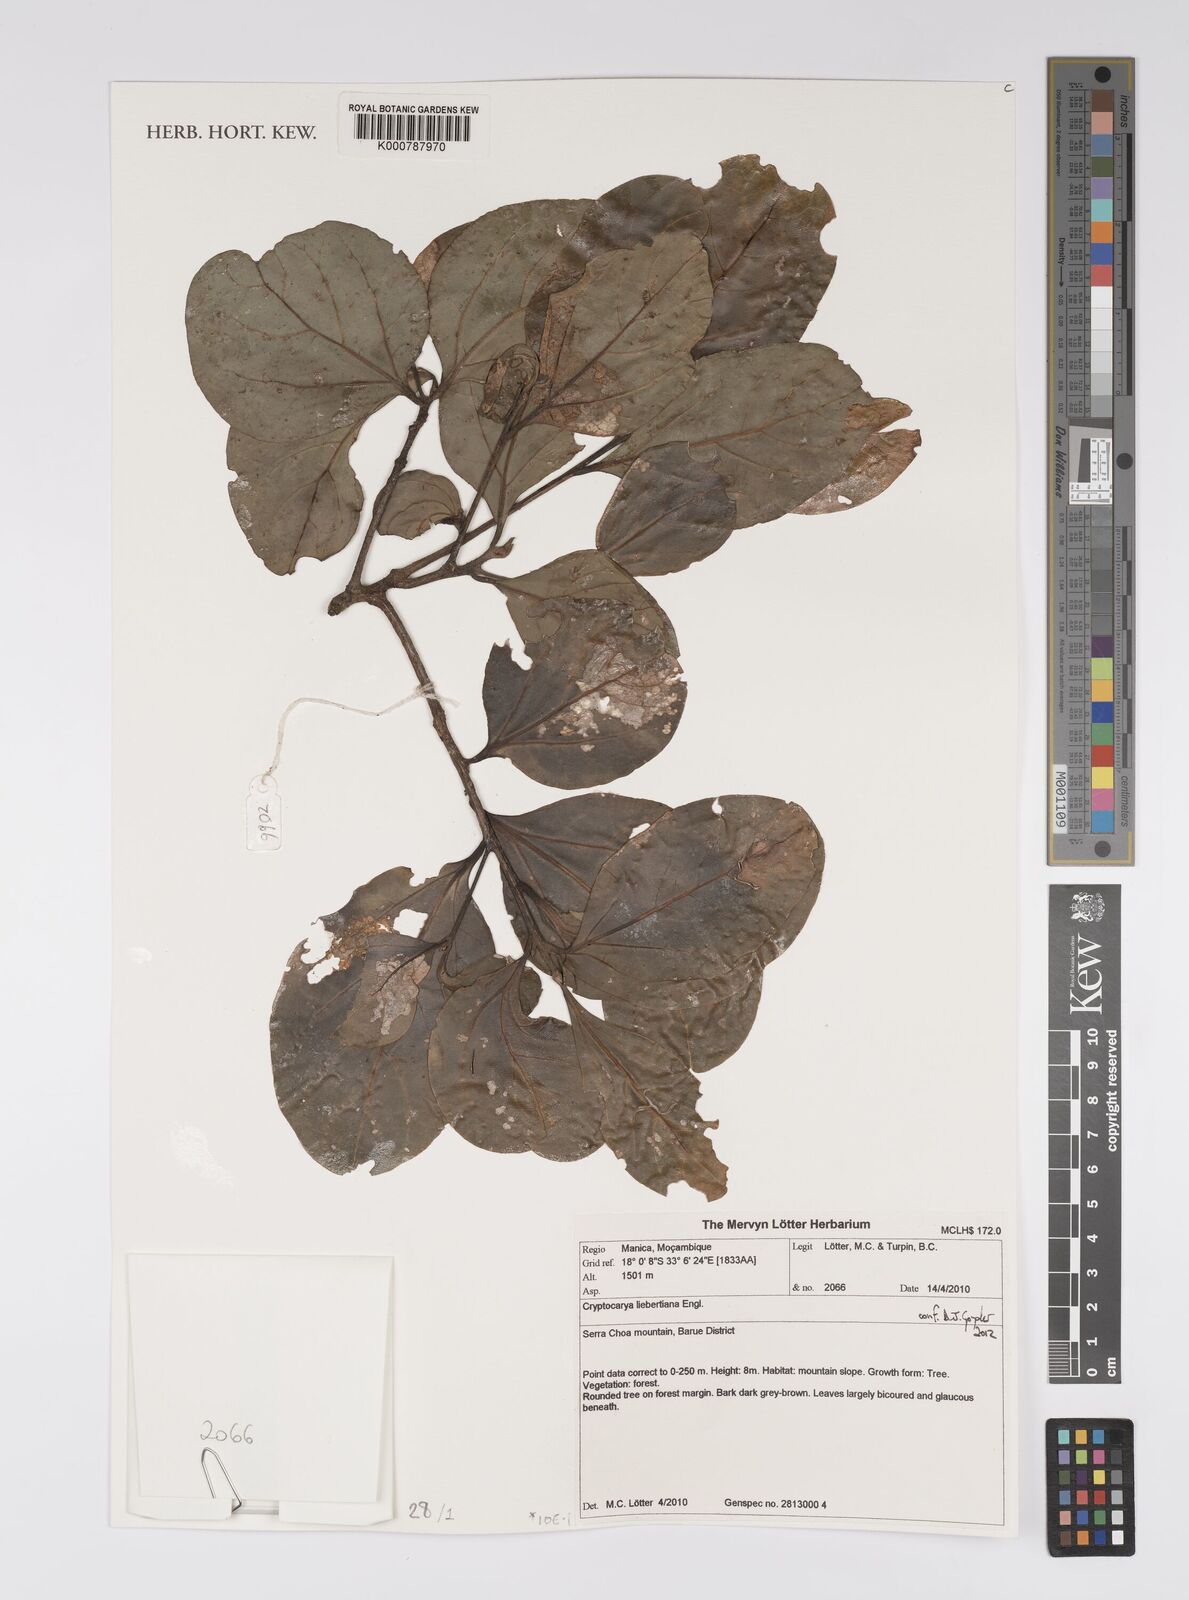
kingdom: Plantae
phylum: Tracheophyta
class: Magnoliopsida
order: Laurales
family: Lauraceae
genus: Cryptocarya
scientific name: Cryptocarya liebertiana
